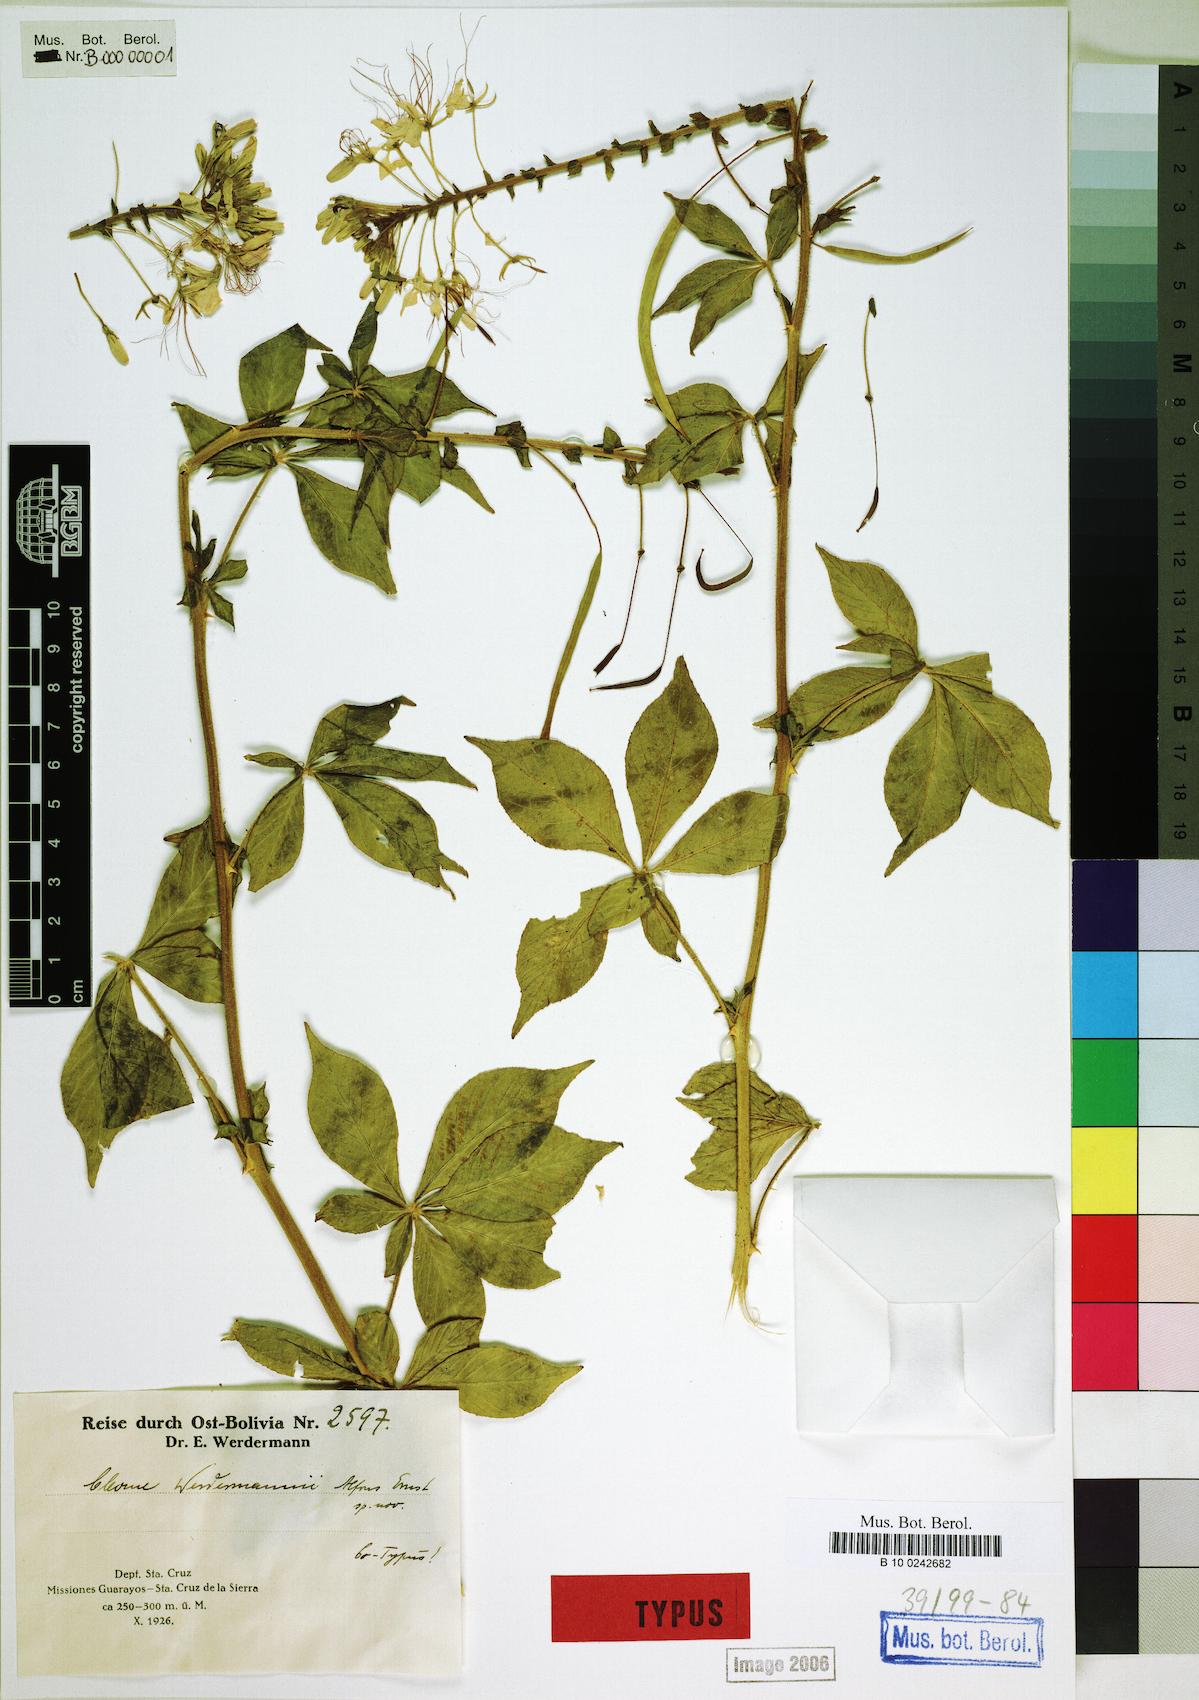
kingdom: Plantae
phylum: Tracheophyta
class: Magnoliopsida
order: Brassicales
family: Cleomaceae
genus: Tarenaya
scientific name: Tarenaya werdermannii
